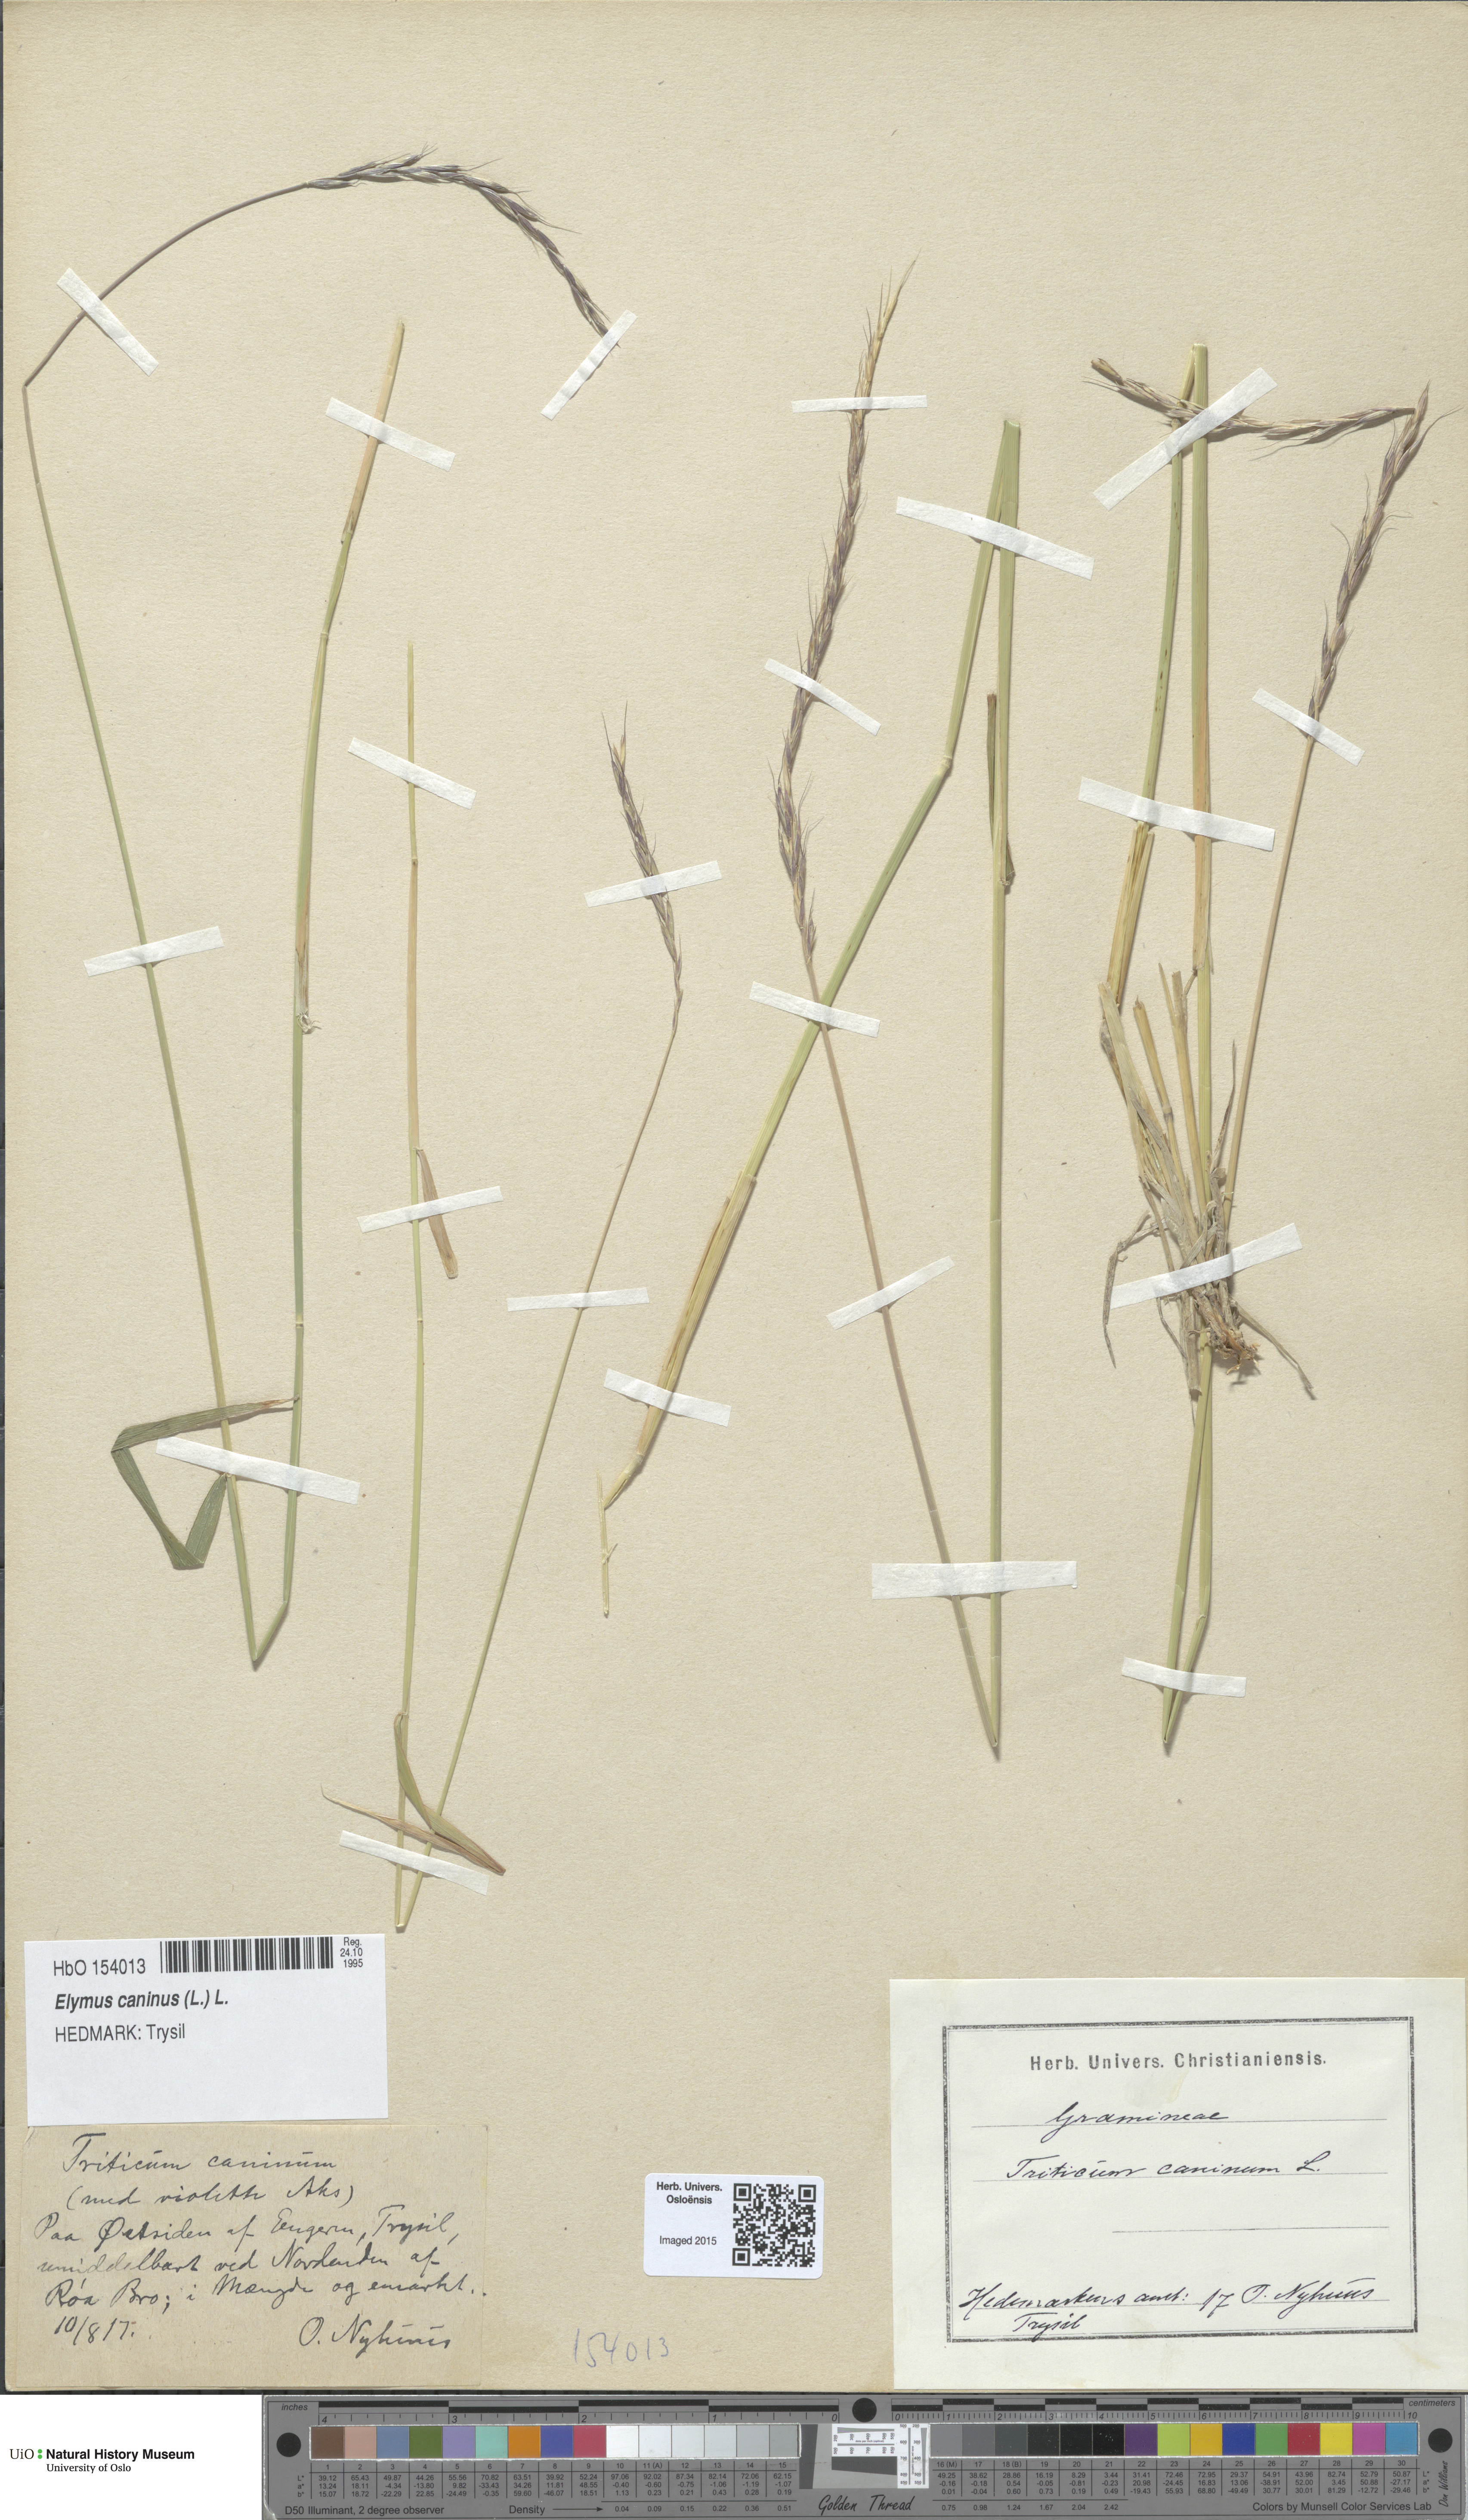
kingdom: Plantae
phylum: Tracheophyta
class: Liliopsida
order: Poales
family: Poaceae
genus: Elymus
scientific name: Elymus caninus
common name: Bearded couch
